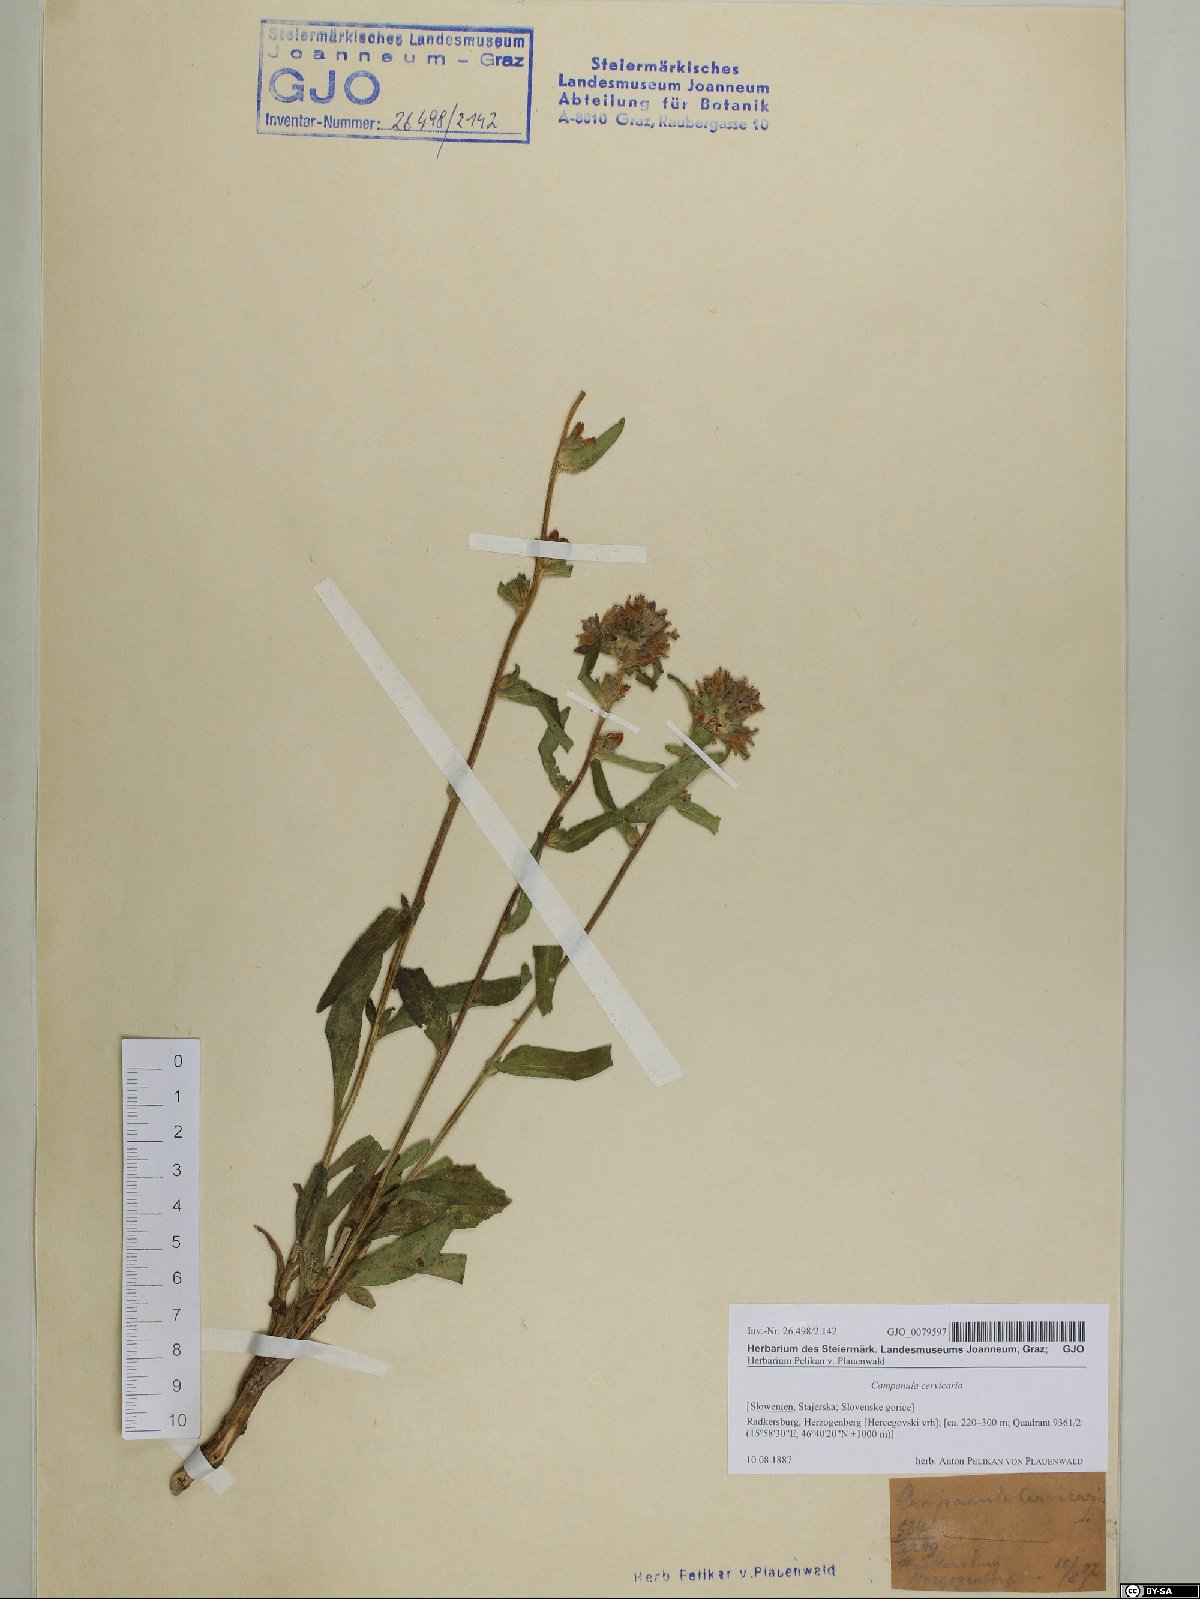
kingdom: Plantae
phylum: Tracheophyta
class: Magnoliopsida
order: Asterales
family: Campanulaceae
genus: Campanula
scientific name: Campanula cervicaria
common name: Bristly bellflower
